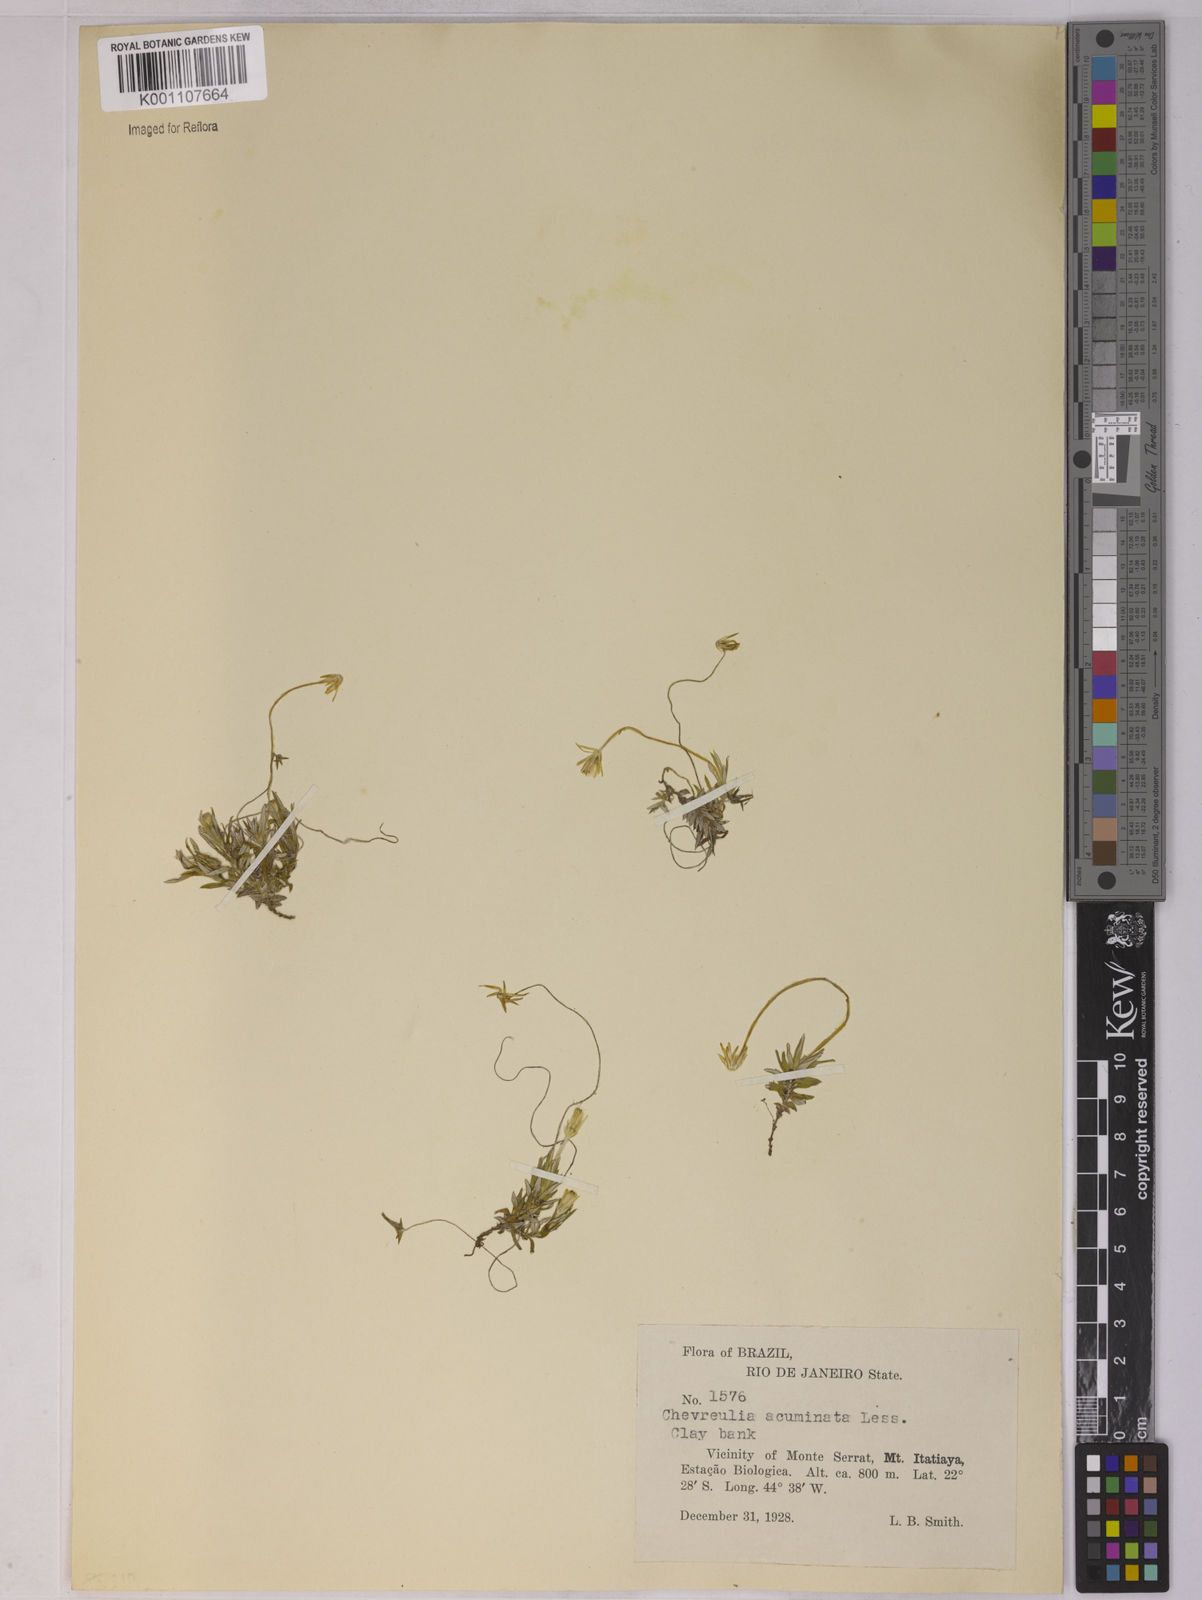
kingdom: Plantae
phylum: Tracheophyta
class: Magnoliopsida
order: Asterales
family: Asteraceae
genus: Chevreulia
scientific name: Chevreulia acuminata
